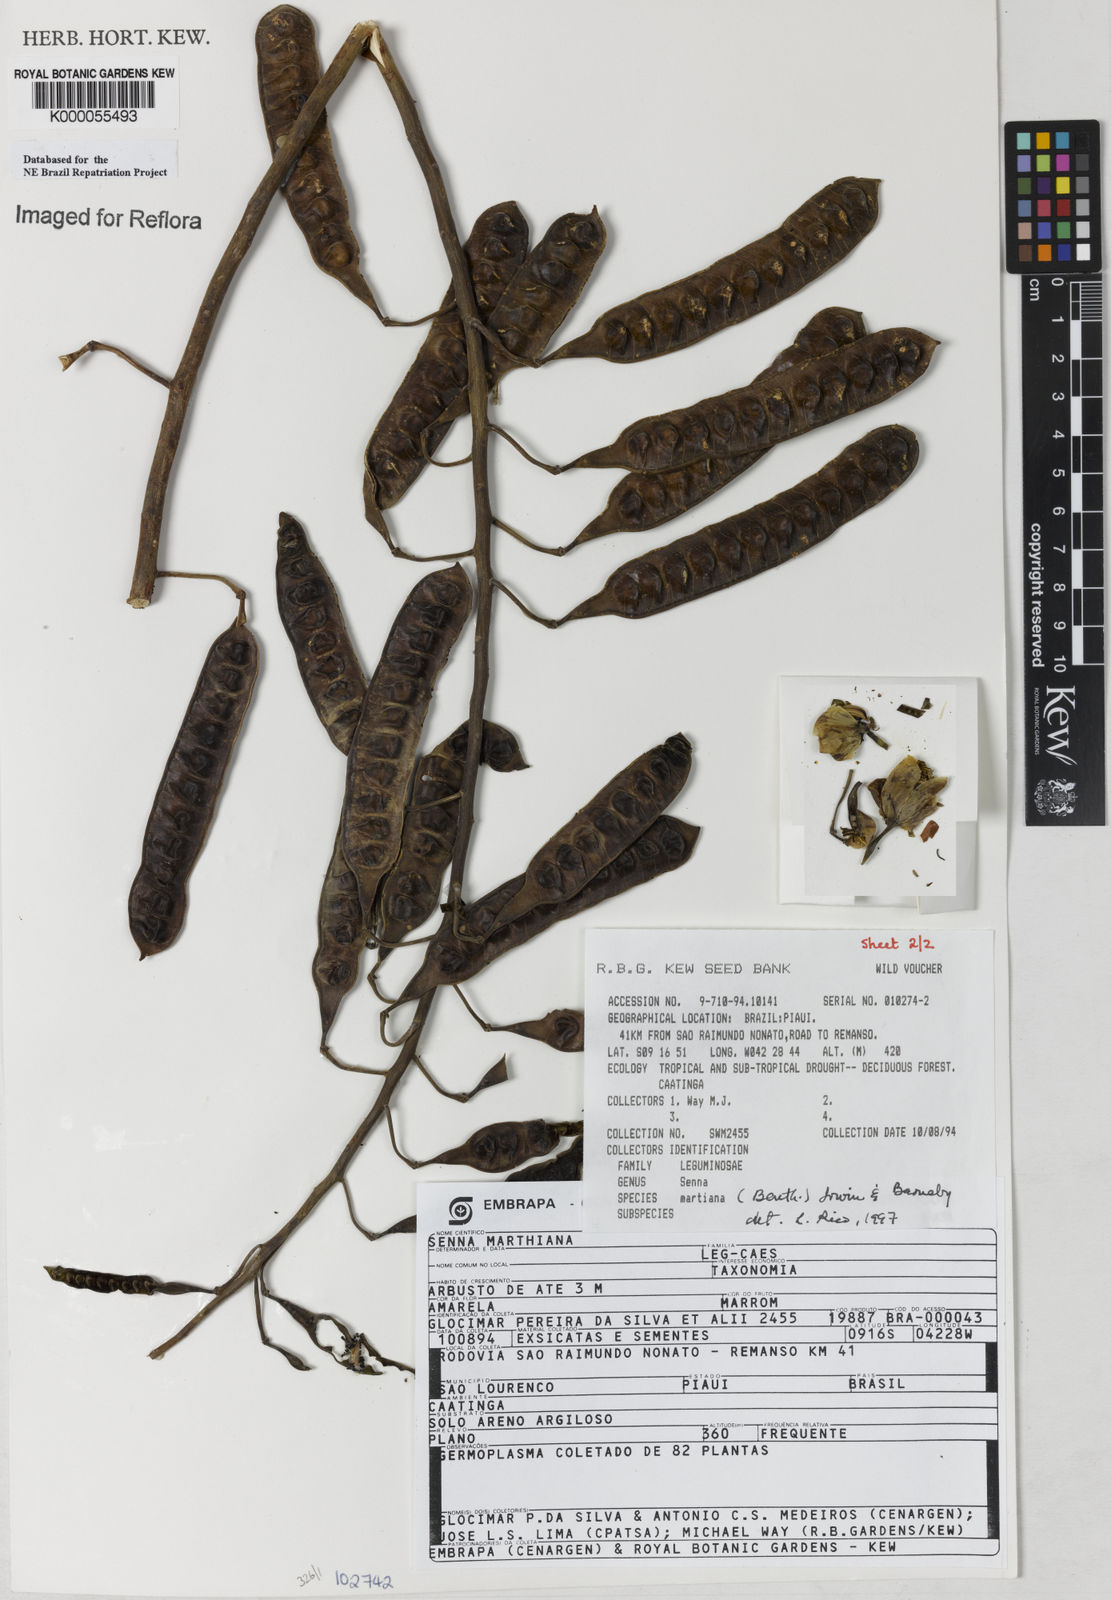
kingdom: Plantae
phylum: Tracheophyta
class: Magnoliopsida
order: Fabales
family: Fabaceae
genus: Senna
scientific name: Senna martiana
